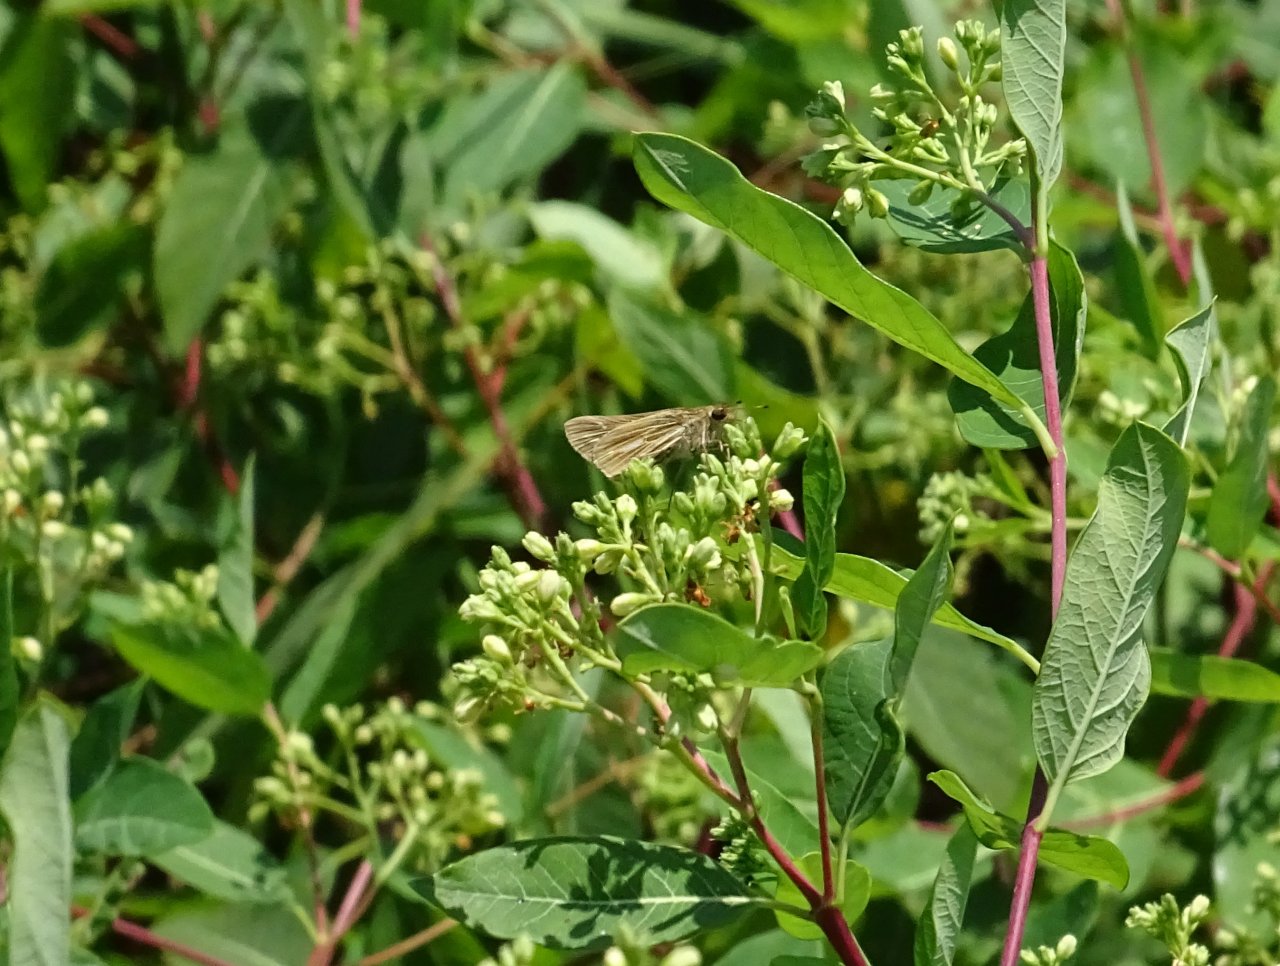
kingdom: Animalia
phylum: Arthropoda
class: Insecta
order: Lepidoptera
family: Hesperiidae
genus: Panoquina
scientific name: Panoquina panoquin
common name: Salt Marsh Skipper
